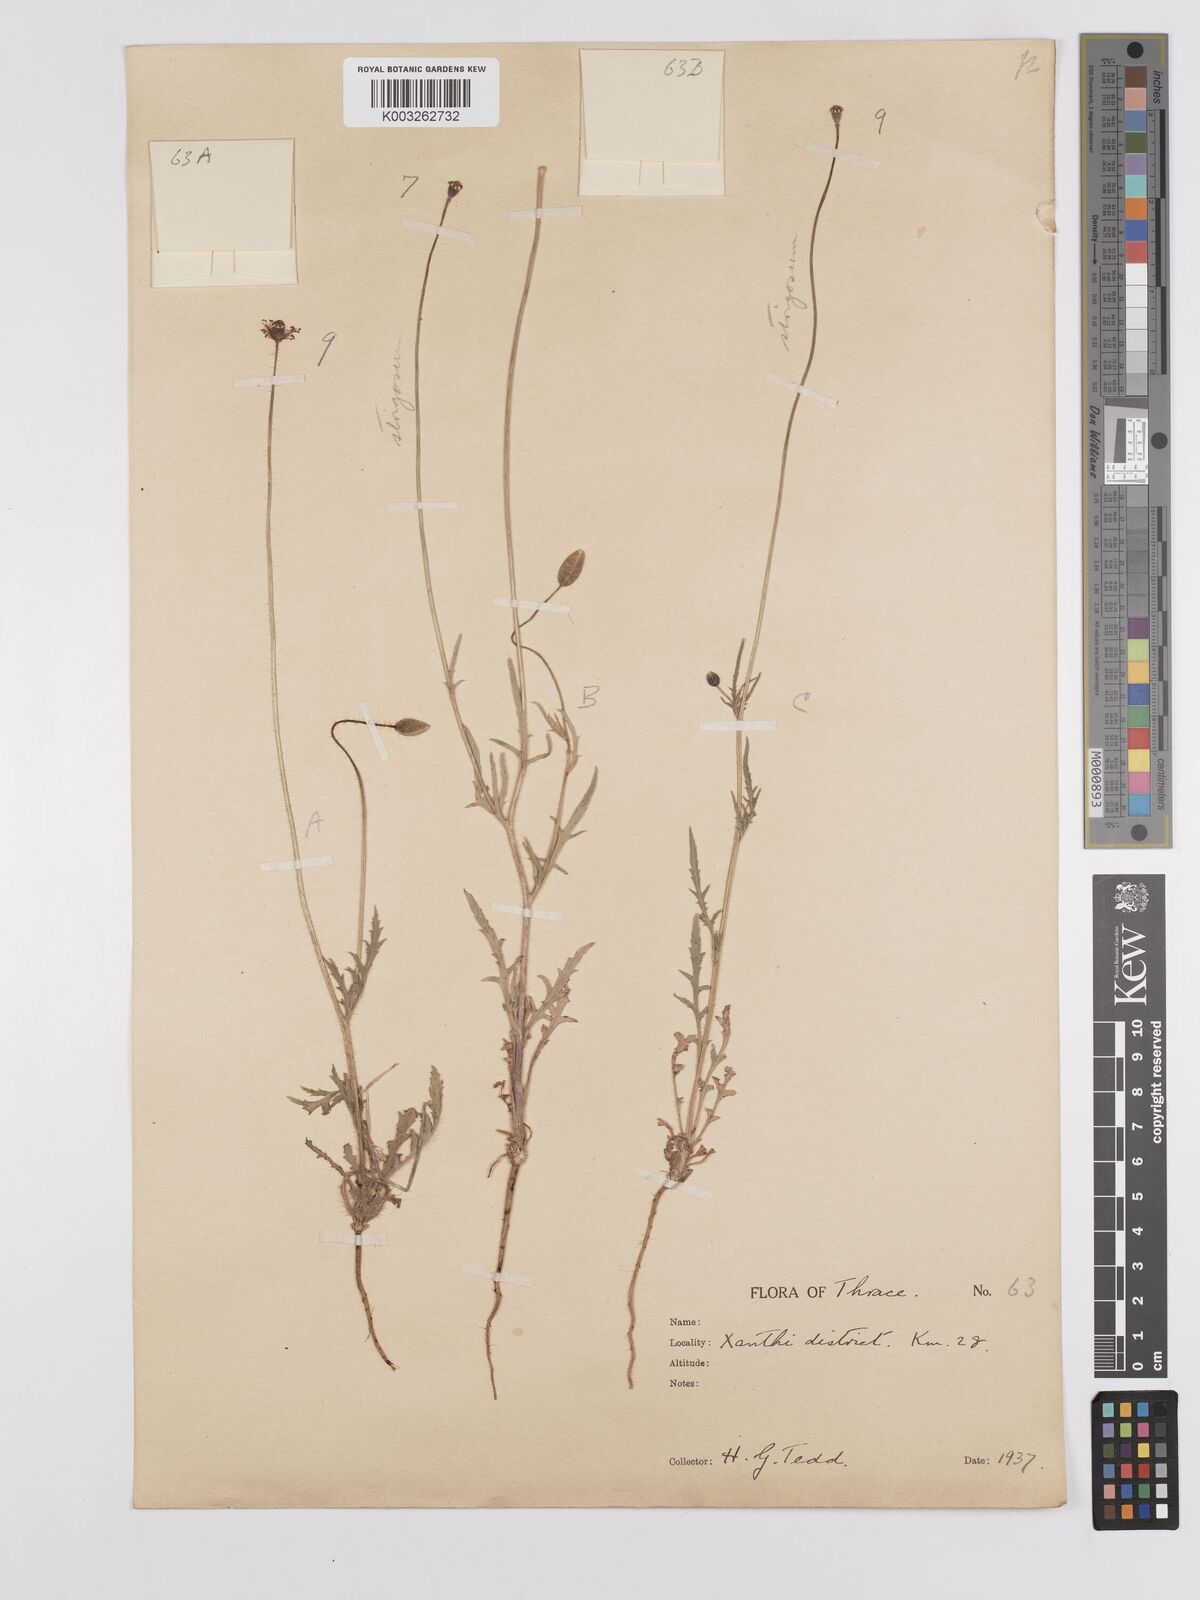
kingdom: Plantae
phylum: Tracheophyta
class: Magnoliopsida
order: Ranunculales
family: Papaveraceae
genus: Papaver
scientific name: Papaver
